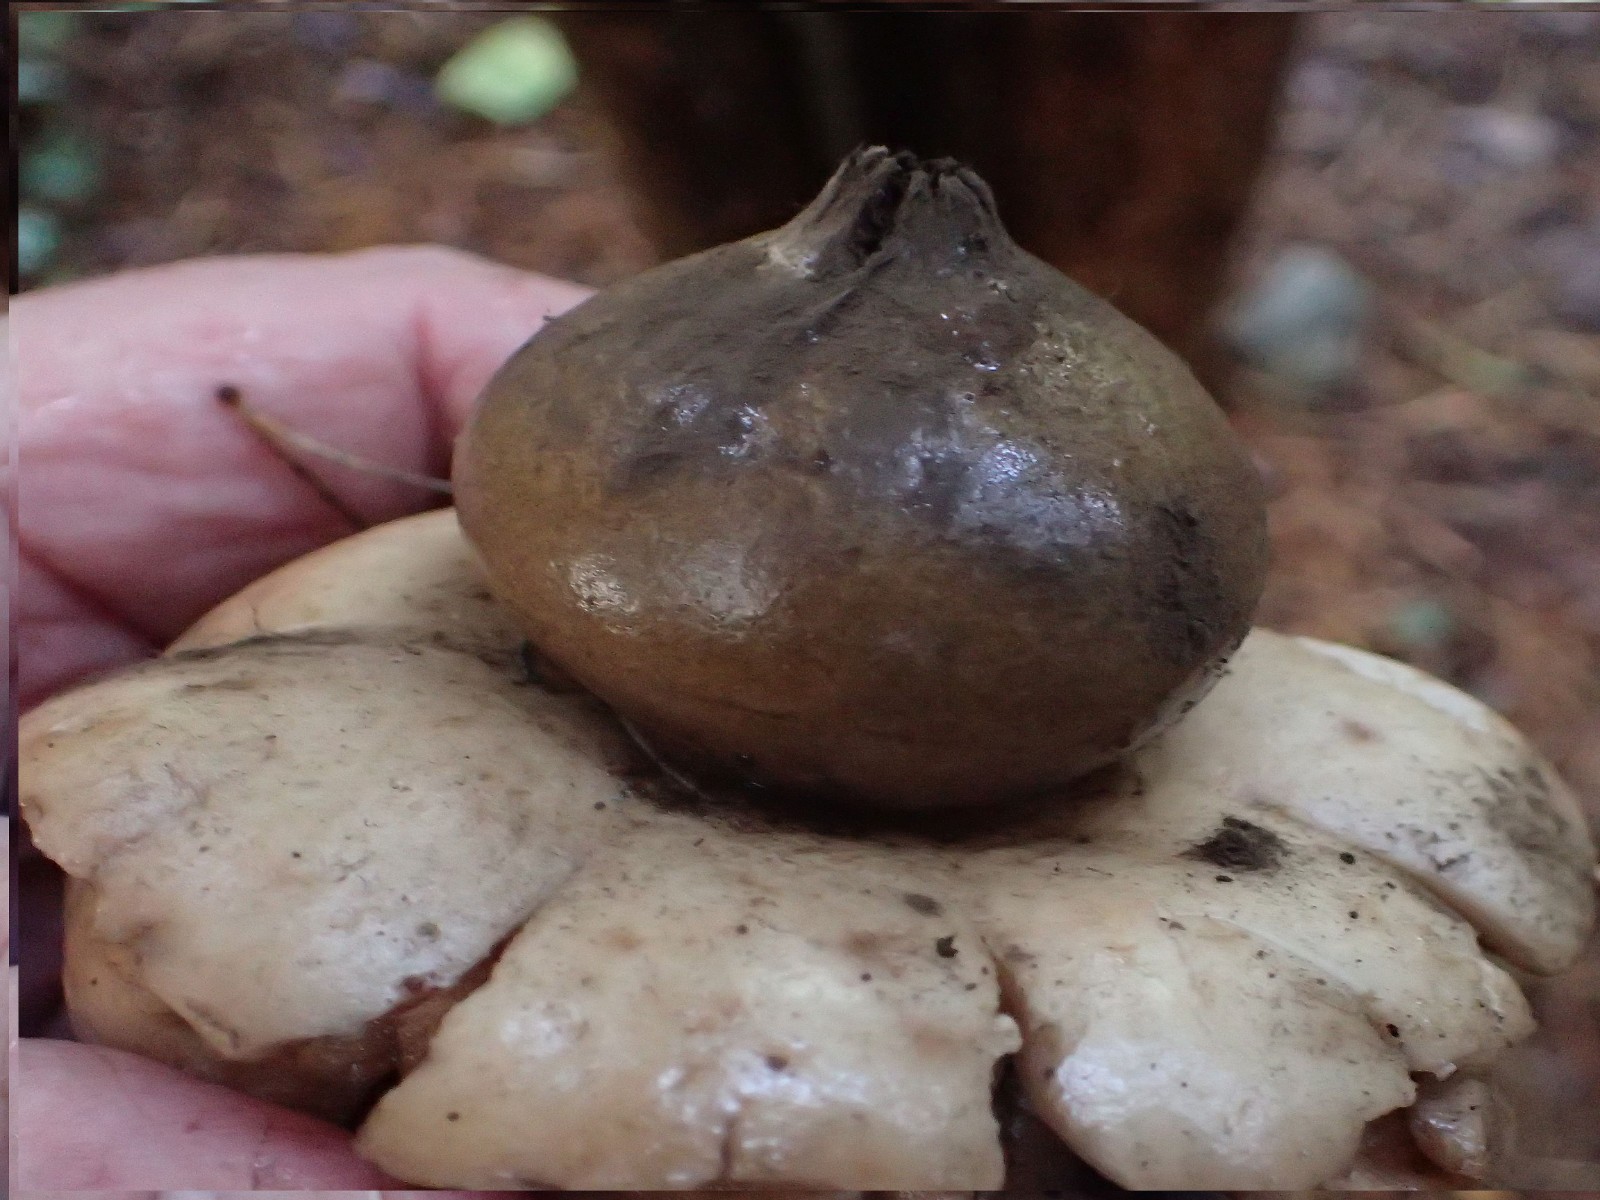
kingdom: Fungi
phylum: Basidiomycota
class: Agaricomycetes
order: Geastrales
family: Geastraceae
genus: Geastrum
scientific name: Geastrum fimbriatum
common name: frynset stjernebold
